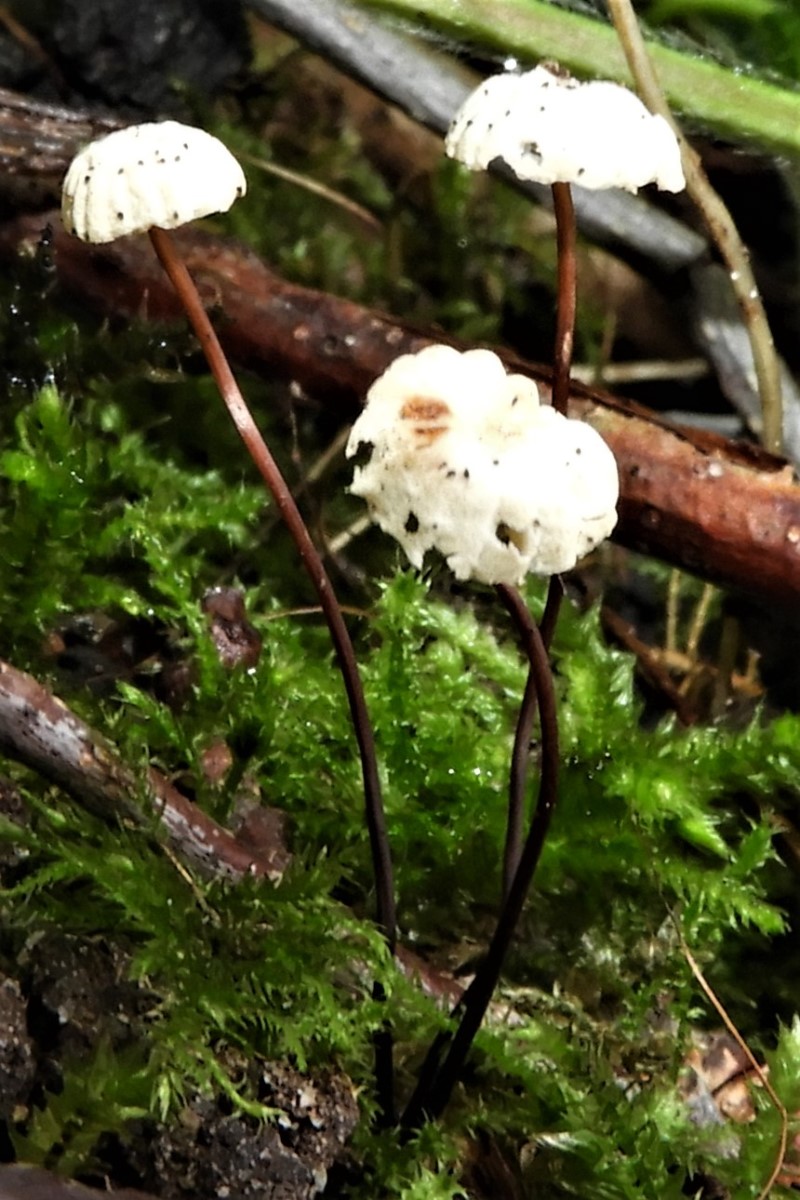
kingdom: Fungi
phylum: Basidiomycota
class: Agaricomycetes
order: Agaricales
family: Marasmiaceae
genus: Marasmius
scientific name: Marasmius rotula
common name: hjul-bruskhat
